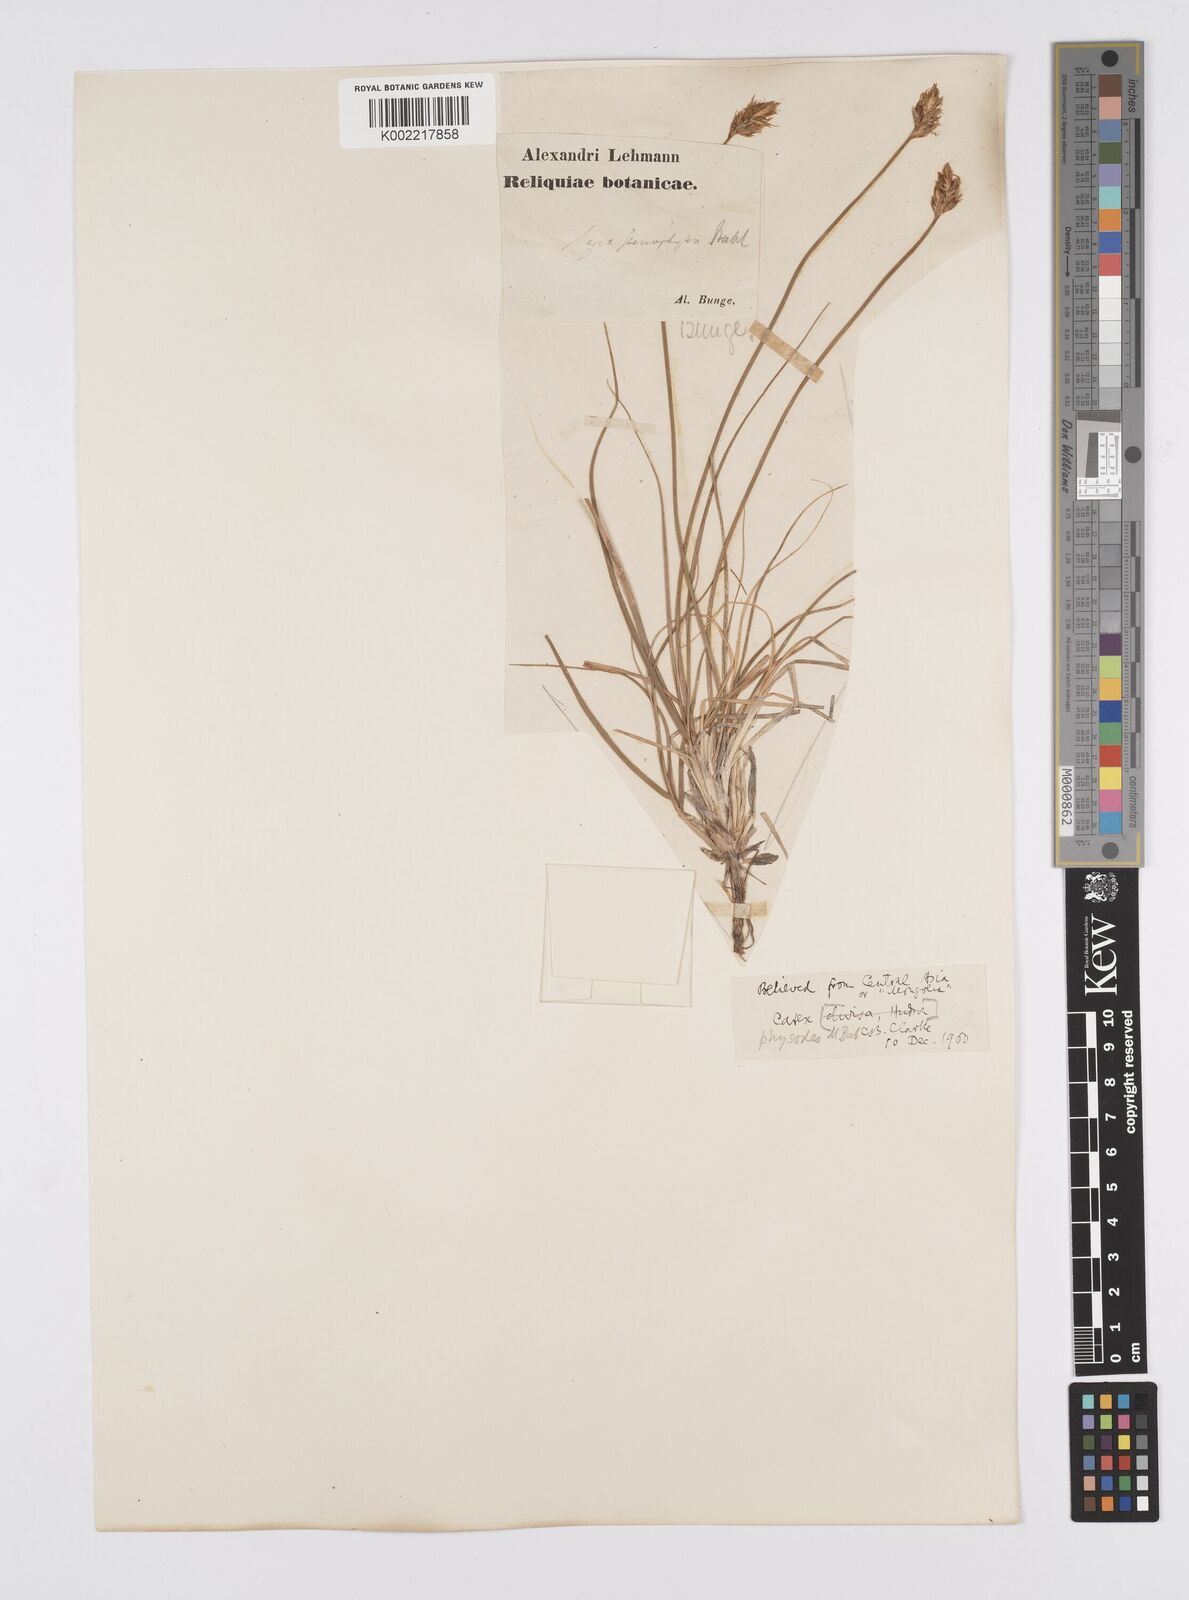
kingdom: Plantae
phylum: Tracheophyta
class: Liliopsida
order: Poales
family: Cyperaceae
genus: Carex
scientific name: Carex physodes
